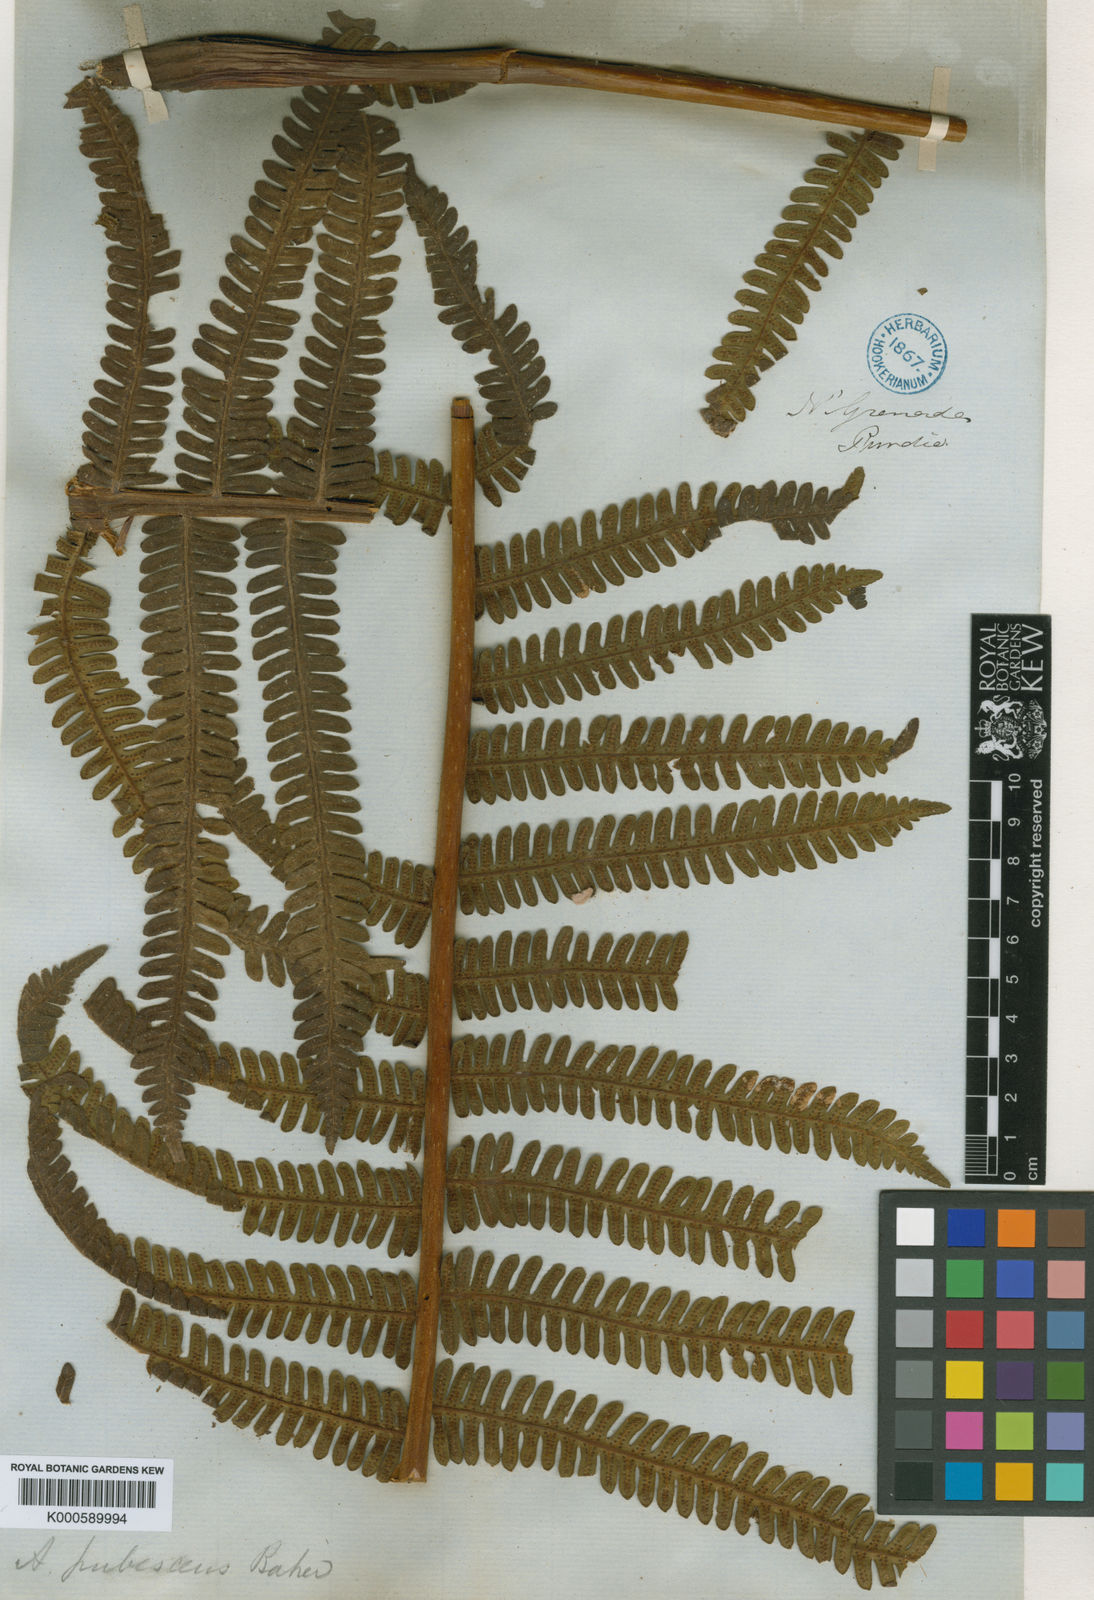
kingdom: Plantae
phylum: Tracheophyta
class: Polypodiopsida
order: Cyatheales
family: Cyatheaceae
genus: Alsophila
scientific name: Alsophila auneae
